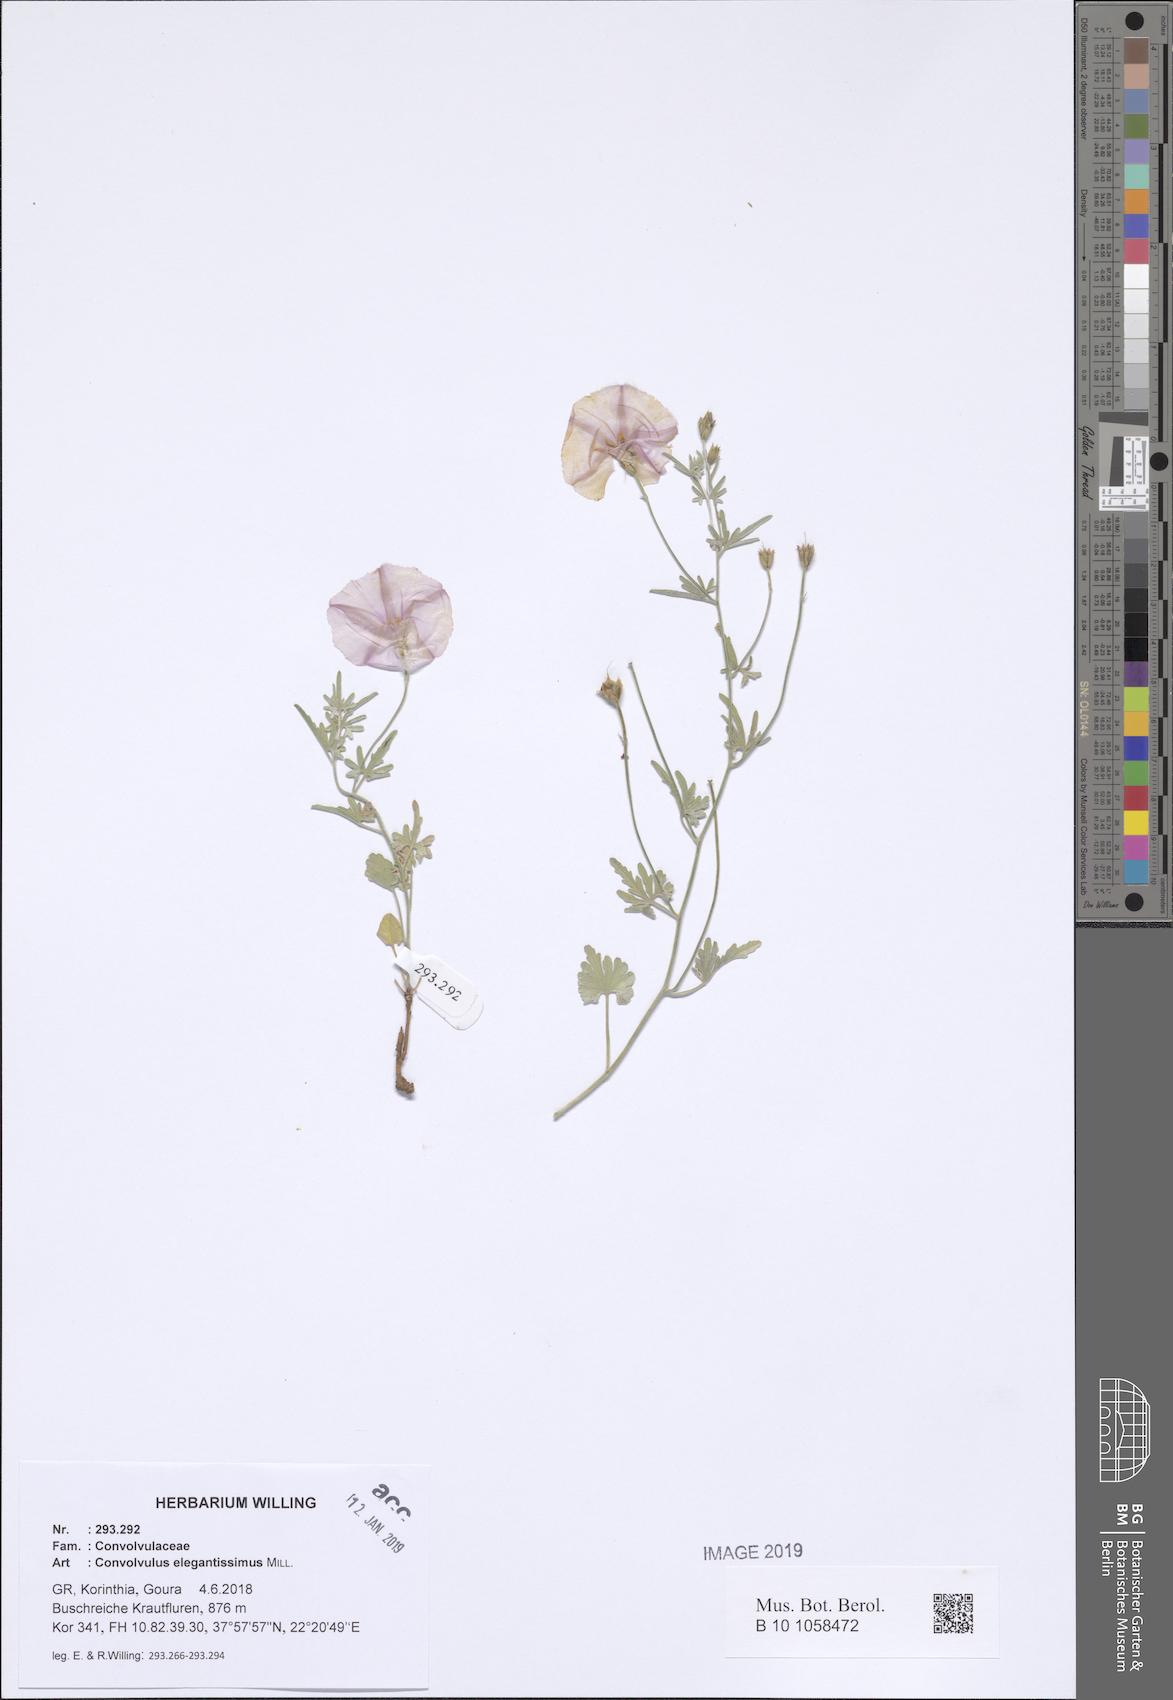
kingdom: Plantae
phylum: Tracheophyta
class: Magnoliopsida
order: Solanales
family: Convolvulaceae
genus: Convolvulus
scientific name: Convolvulus elegantissimus
